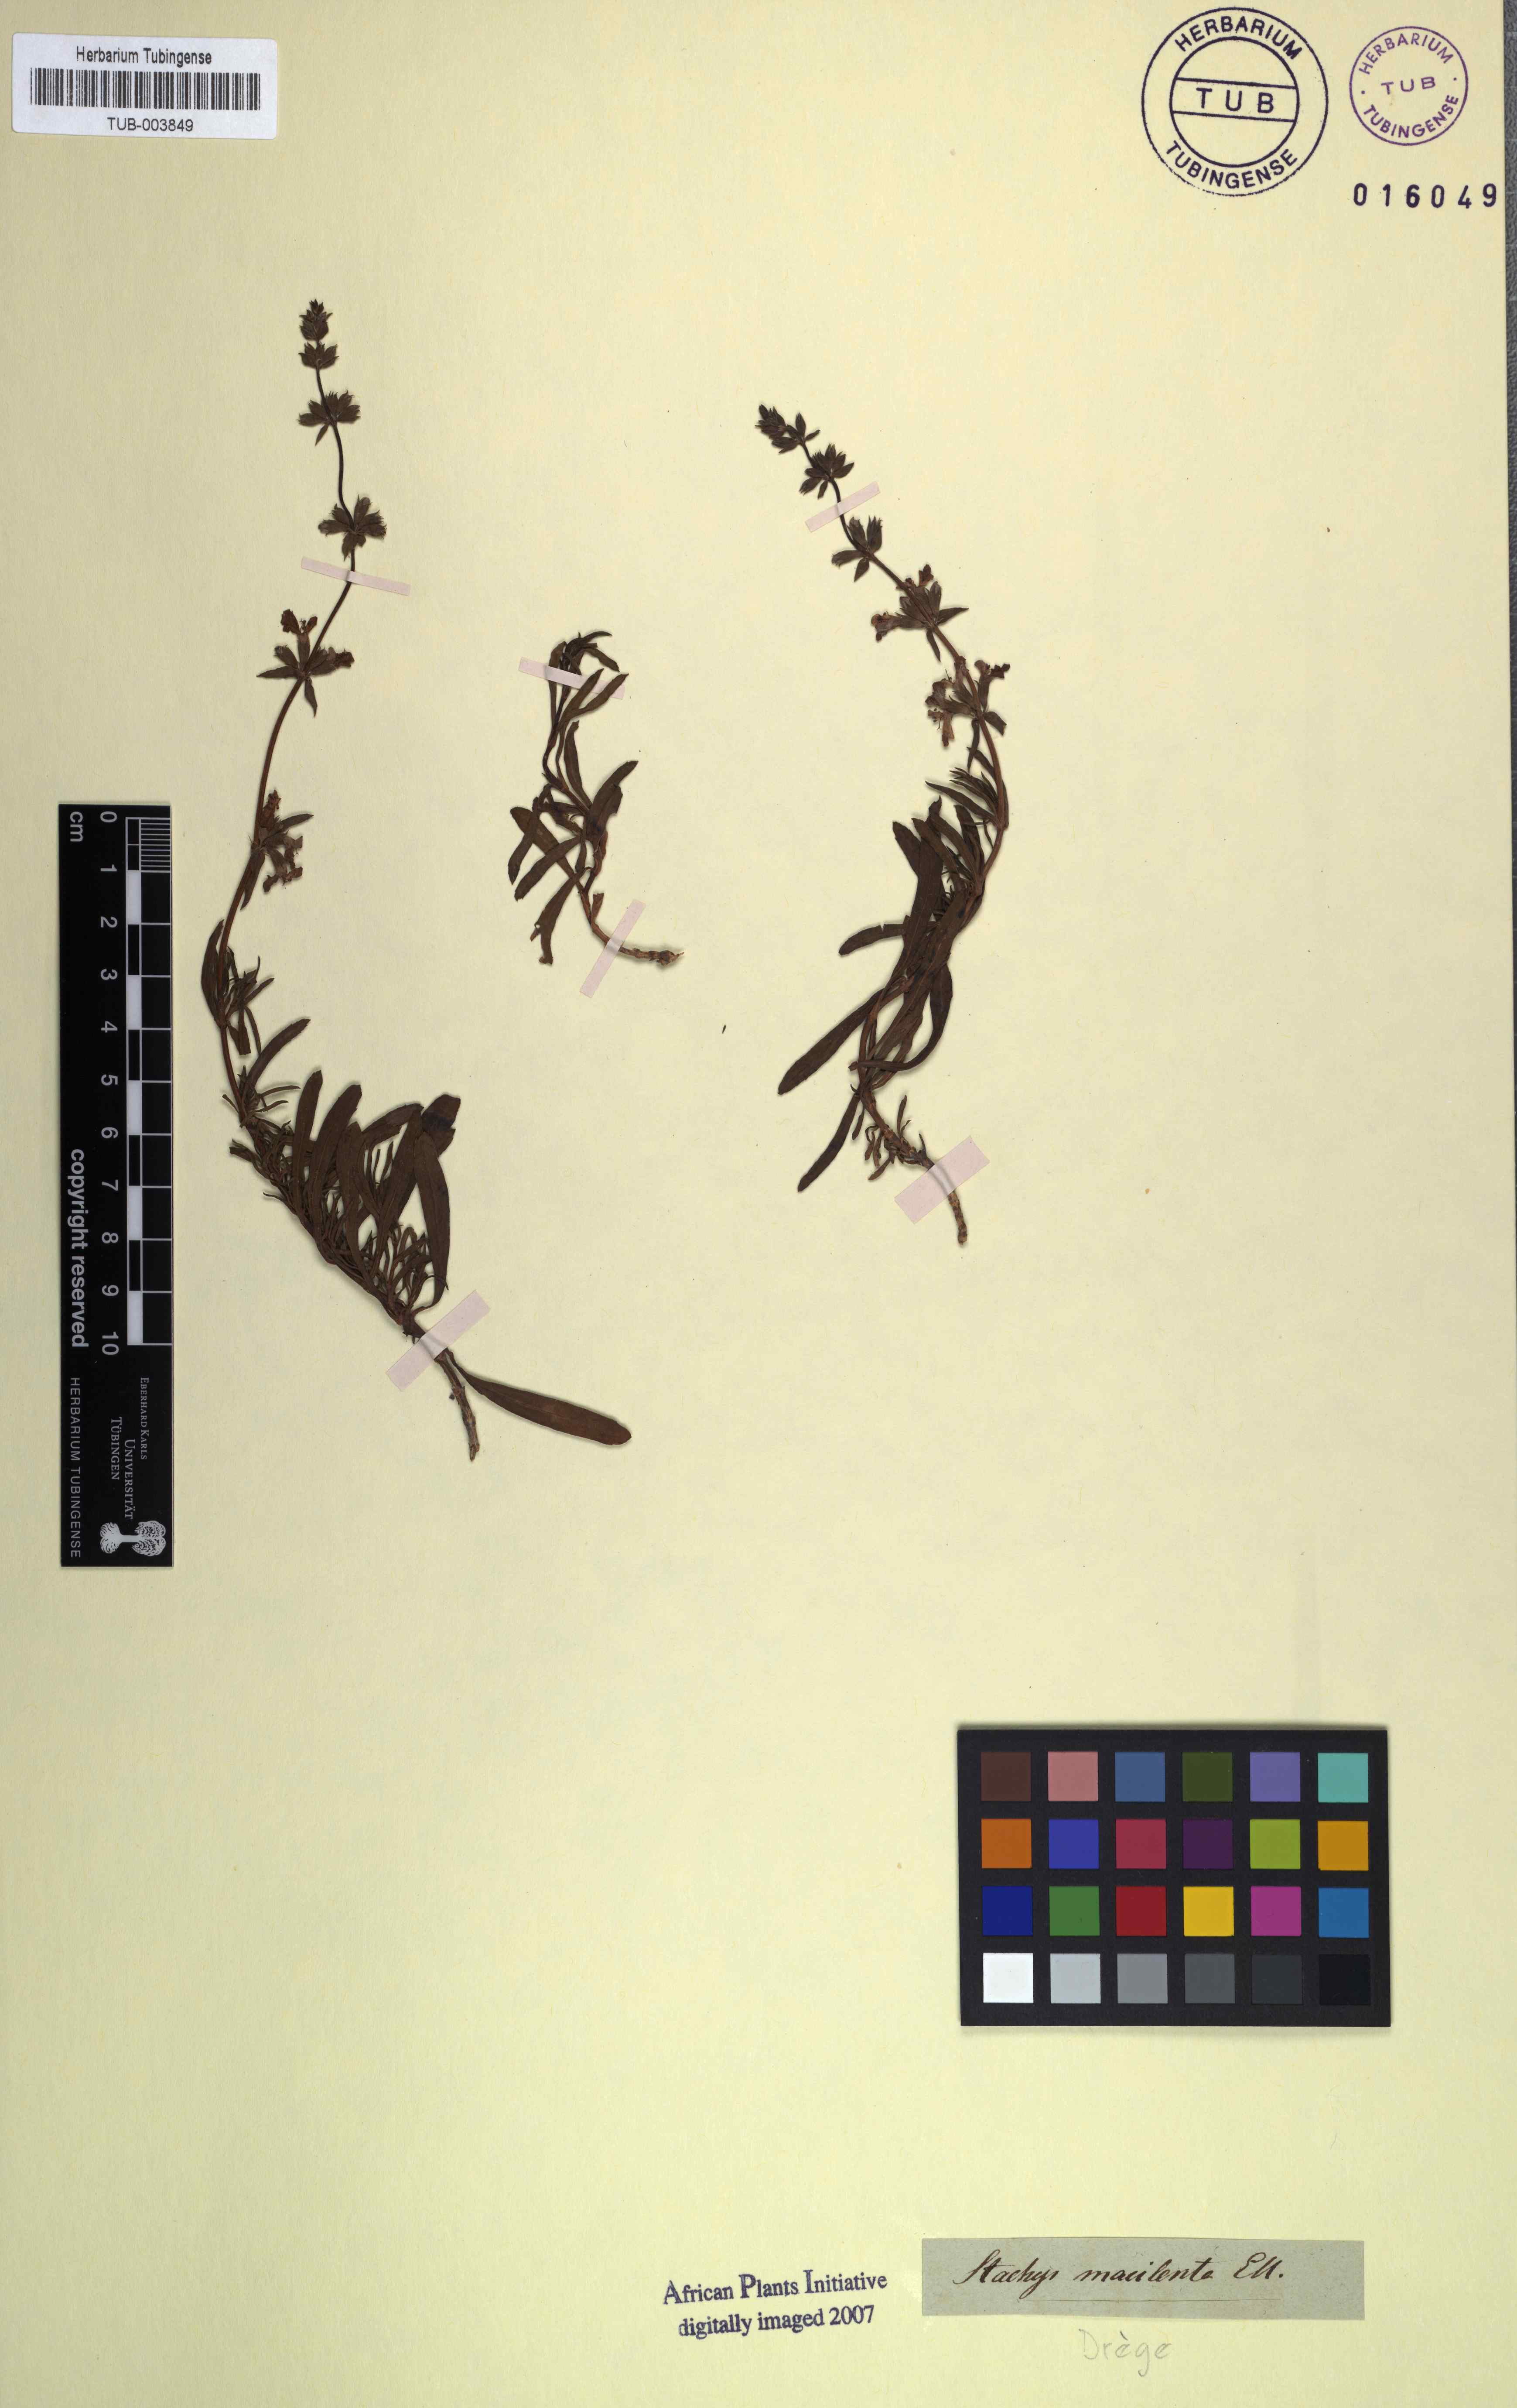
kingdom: Plantae
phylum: Tracheophyta
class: Magnoliopsida
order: Lamiales
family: Lamiaceae
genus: Stachys
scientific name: Stachys hyssopoides
